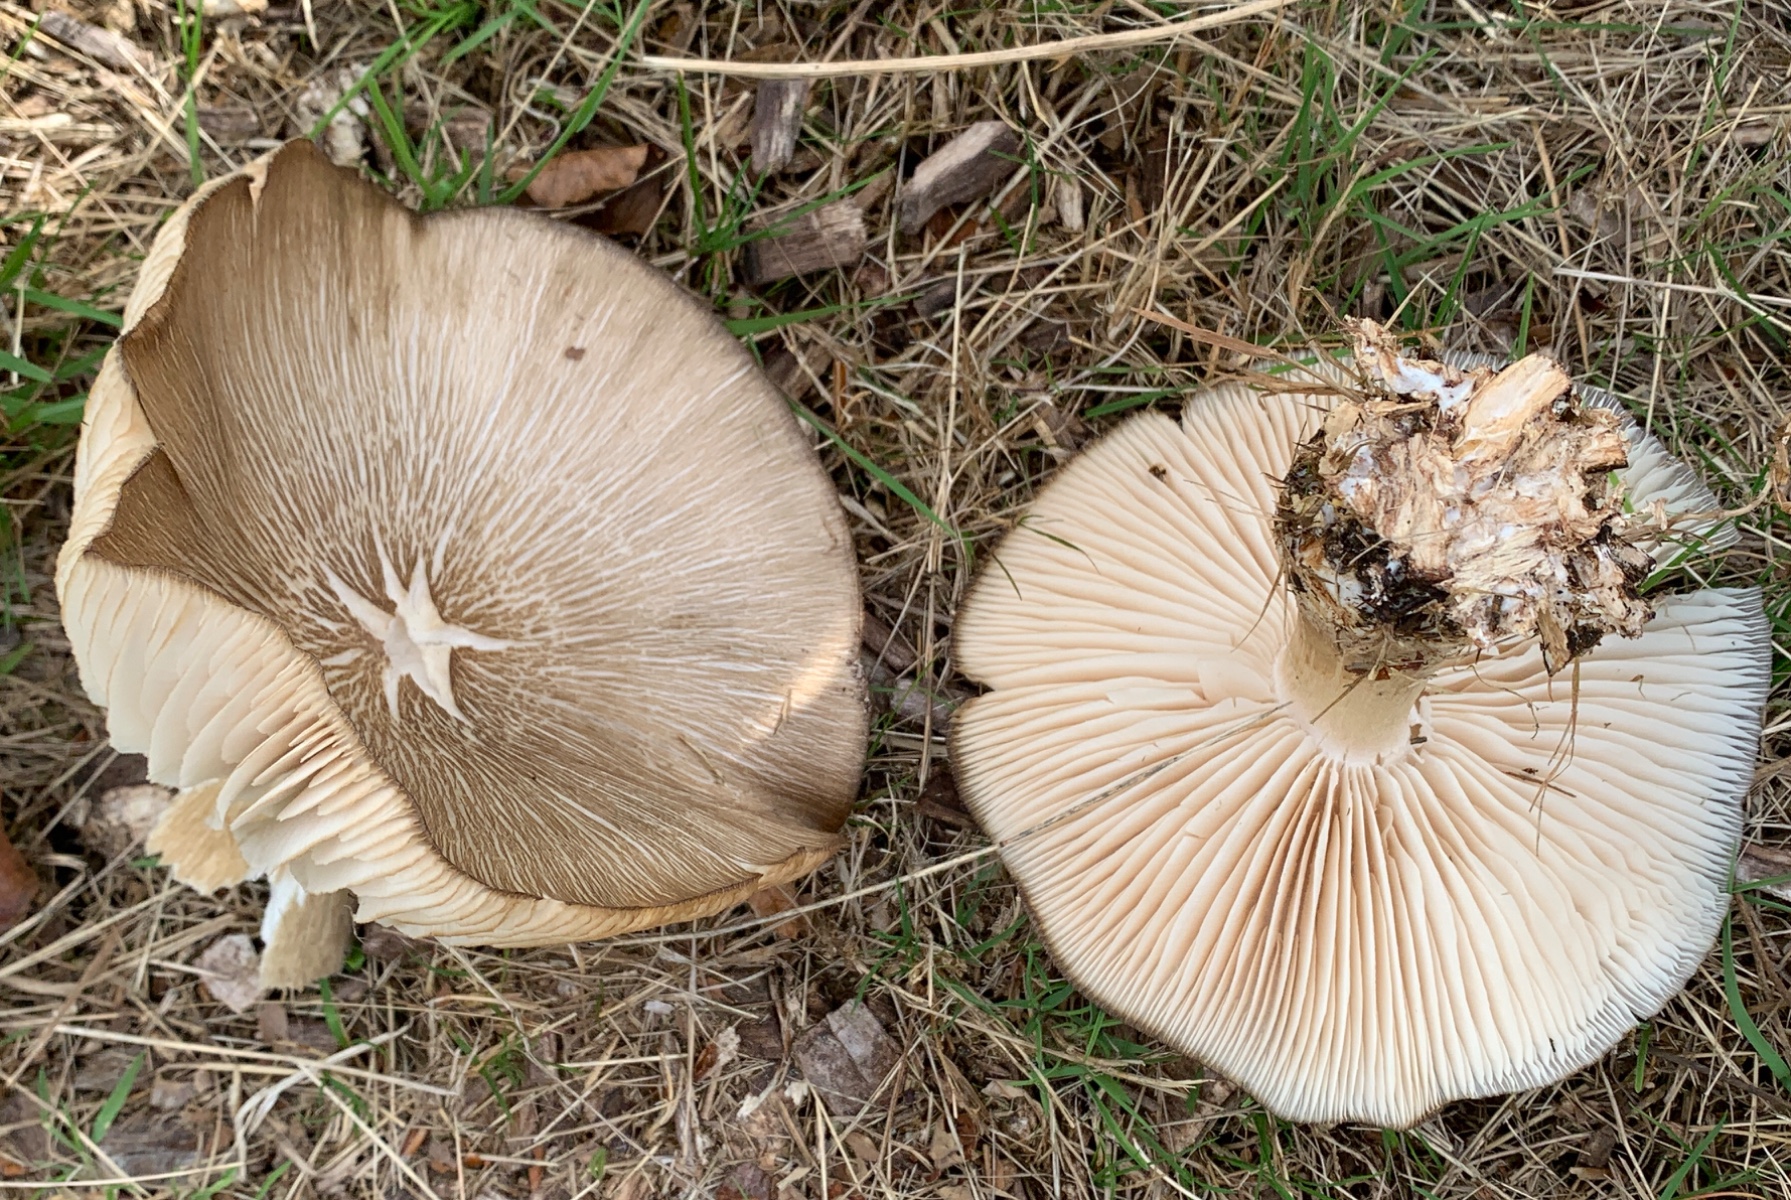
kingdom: Fungi
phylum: Basidiomycota
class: Agaricomycetes
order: Agaricales
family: Tricholomataceae
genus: Megacollybia
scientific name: Megacollybia platyphylla
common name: bredbladet væbnerhat
